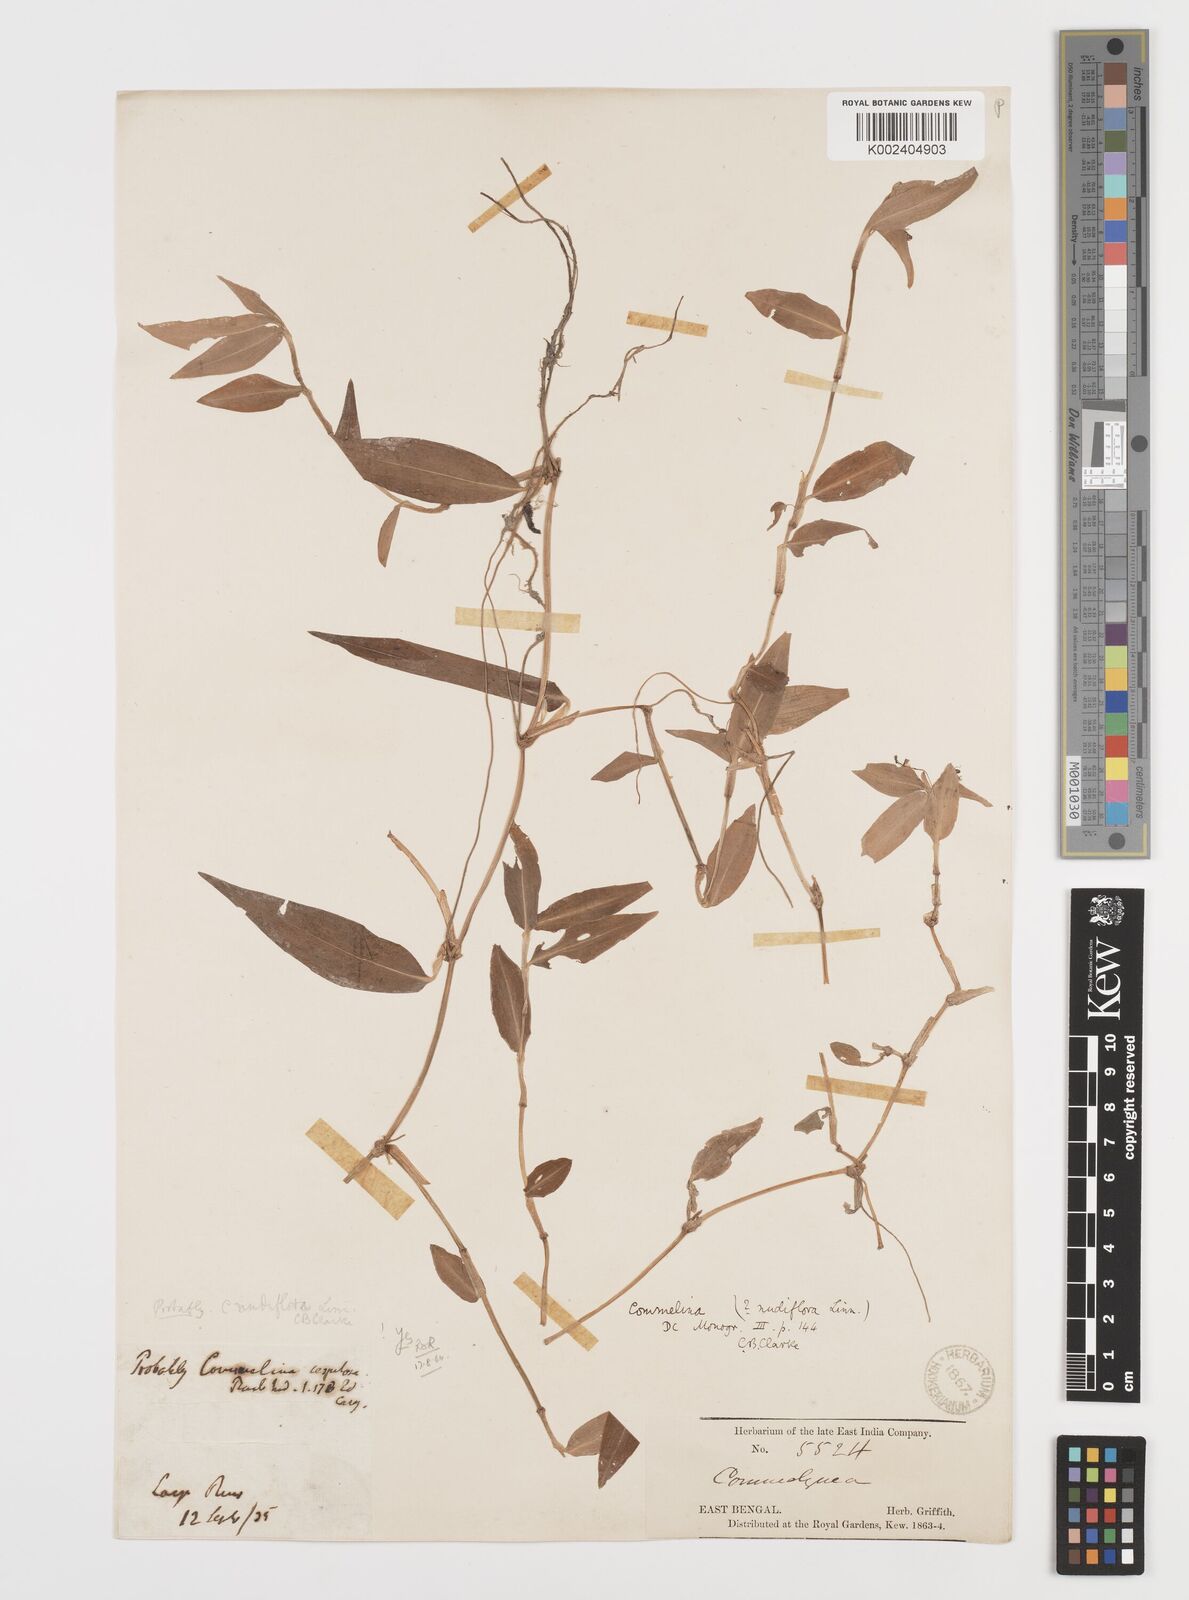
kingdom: Plantae
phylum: Tracheophyta
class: Liliopsida
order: Commelinales
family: Commelinaceae
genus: Commelina
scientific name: Commelina diffusa
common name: Climbing dayflower
